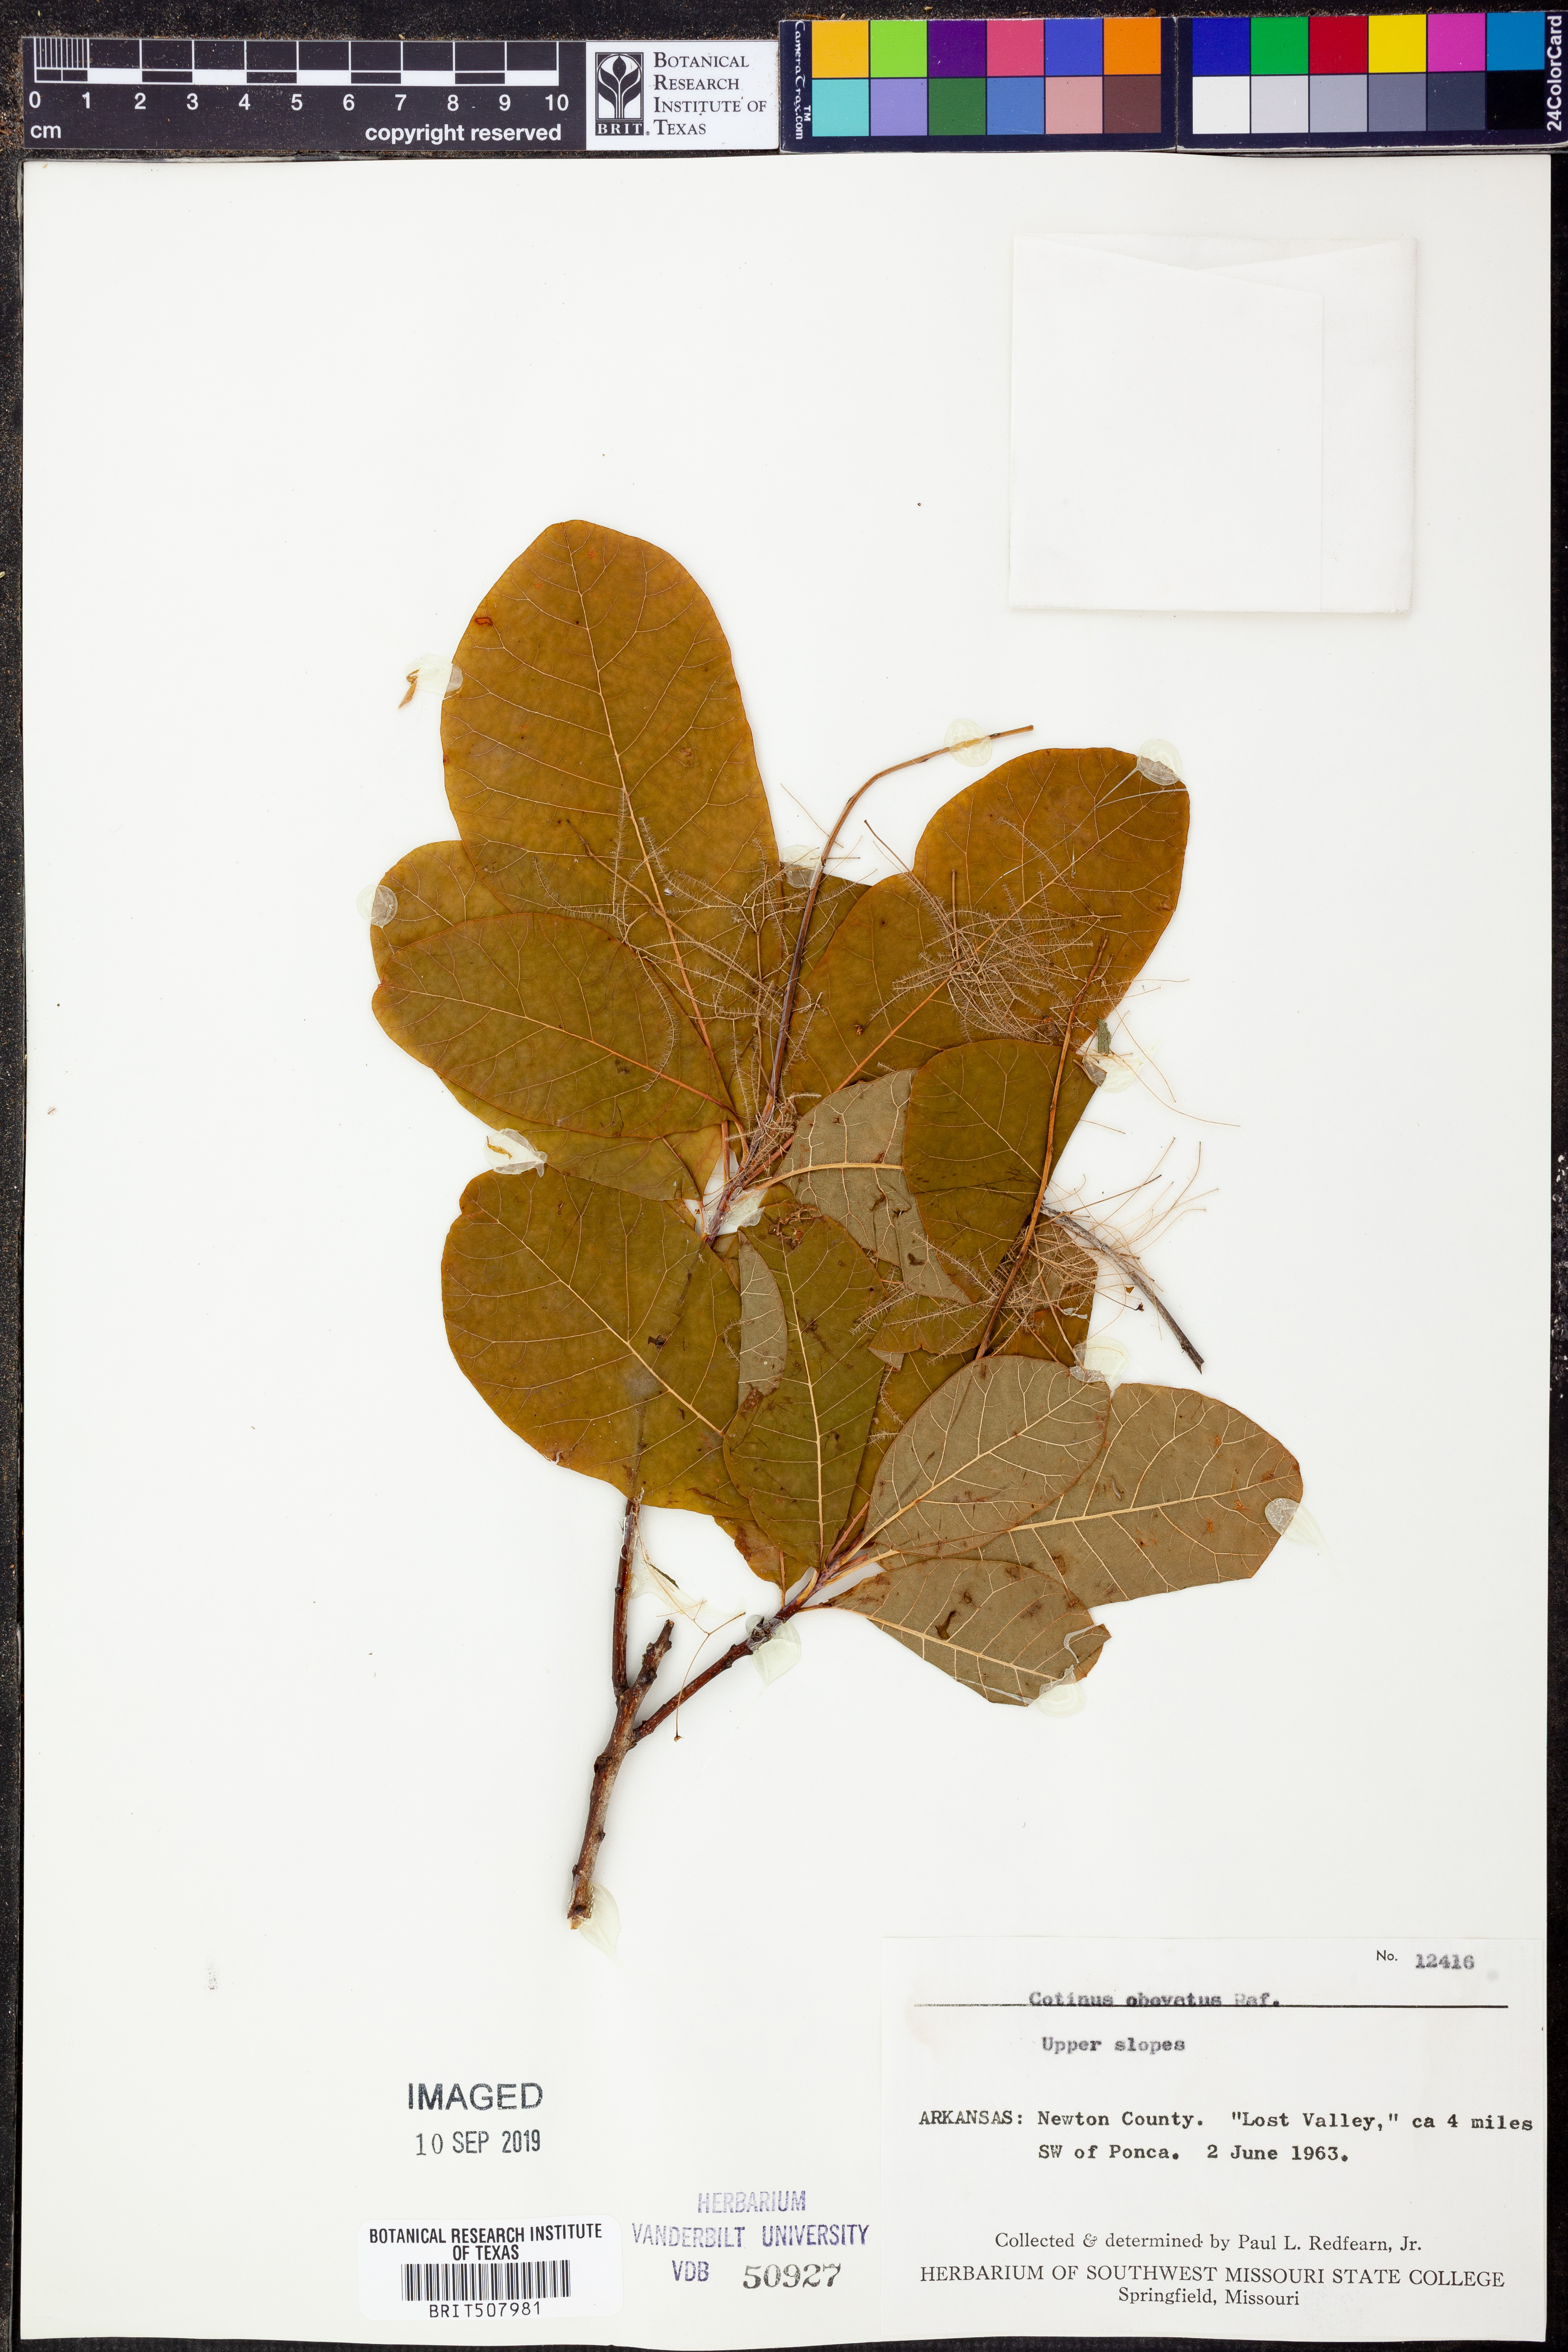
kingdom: Plantae
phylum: Tracheophyta
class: Magnoliopsida
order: Sapindales
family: Anacardiaceae
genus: Cotinus
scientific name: Cotinus obovatus
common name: Chittamwood
